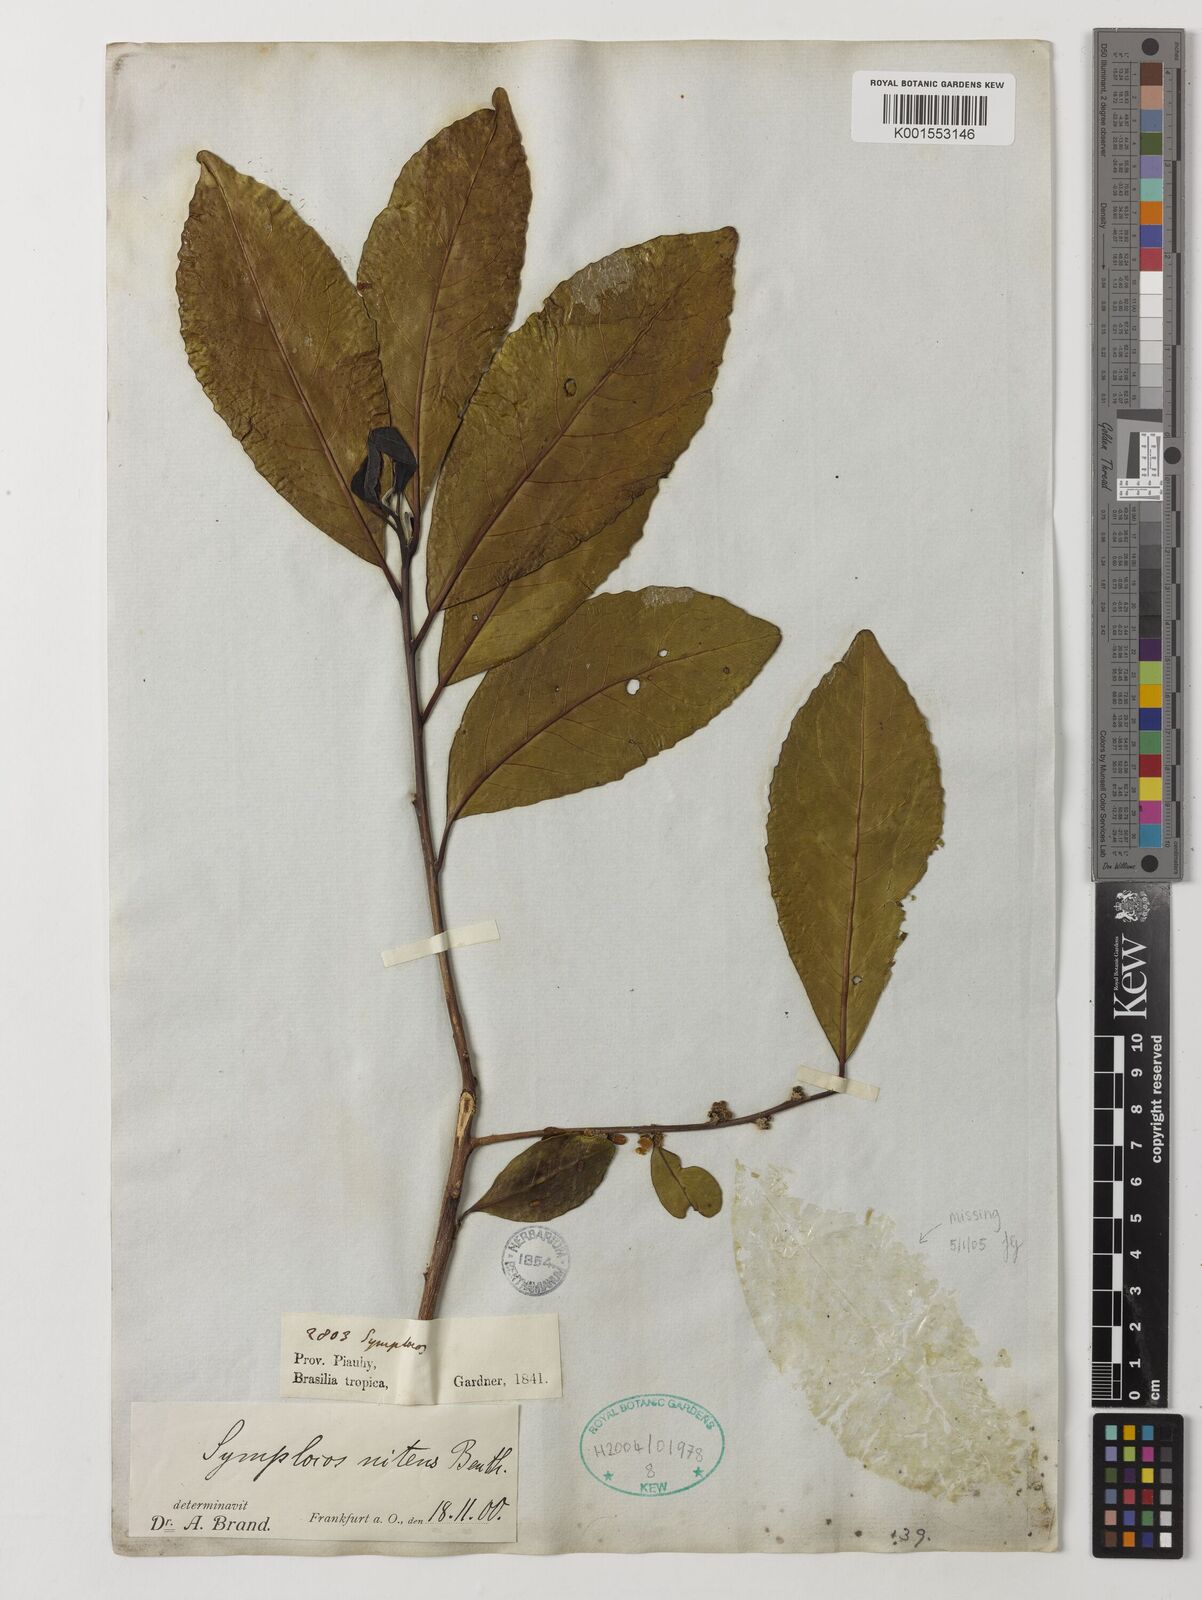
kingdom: Plantae
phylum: Tracheophyta
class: Magnoliopsida
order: Ericales
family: Symplocaceae
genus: Symplocos
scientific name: Symplocos nitens
